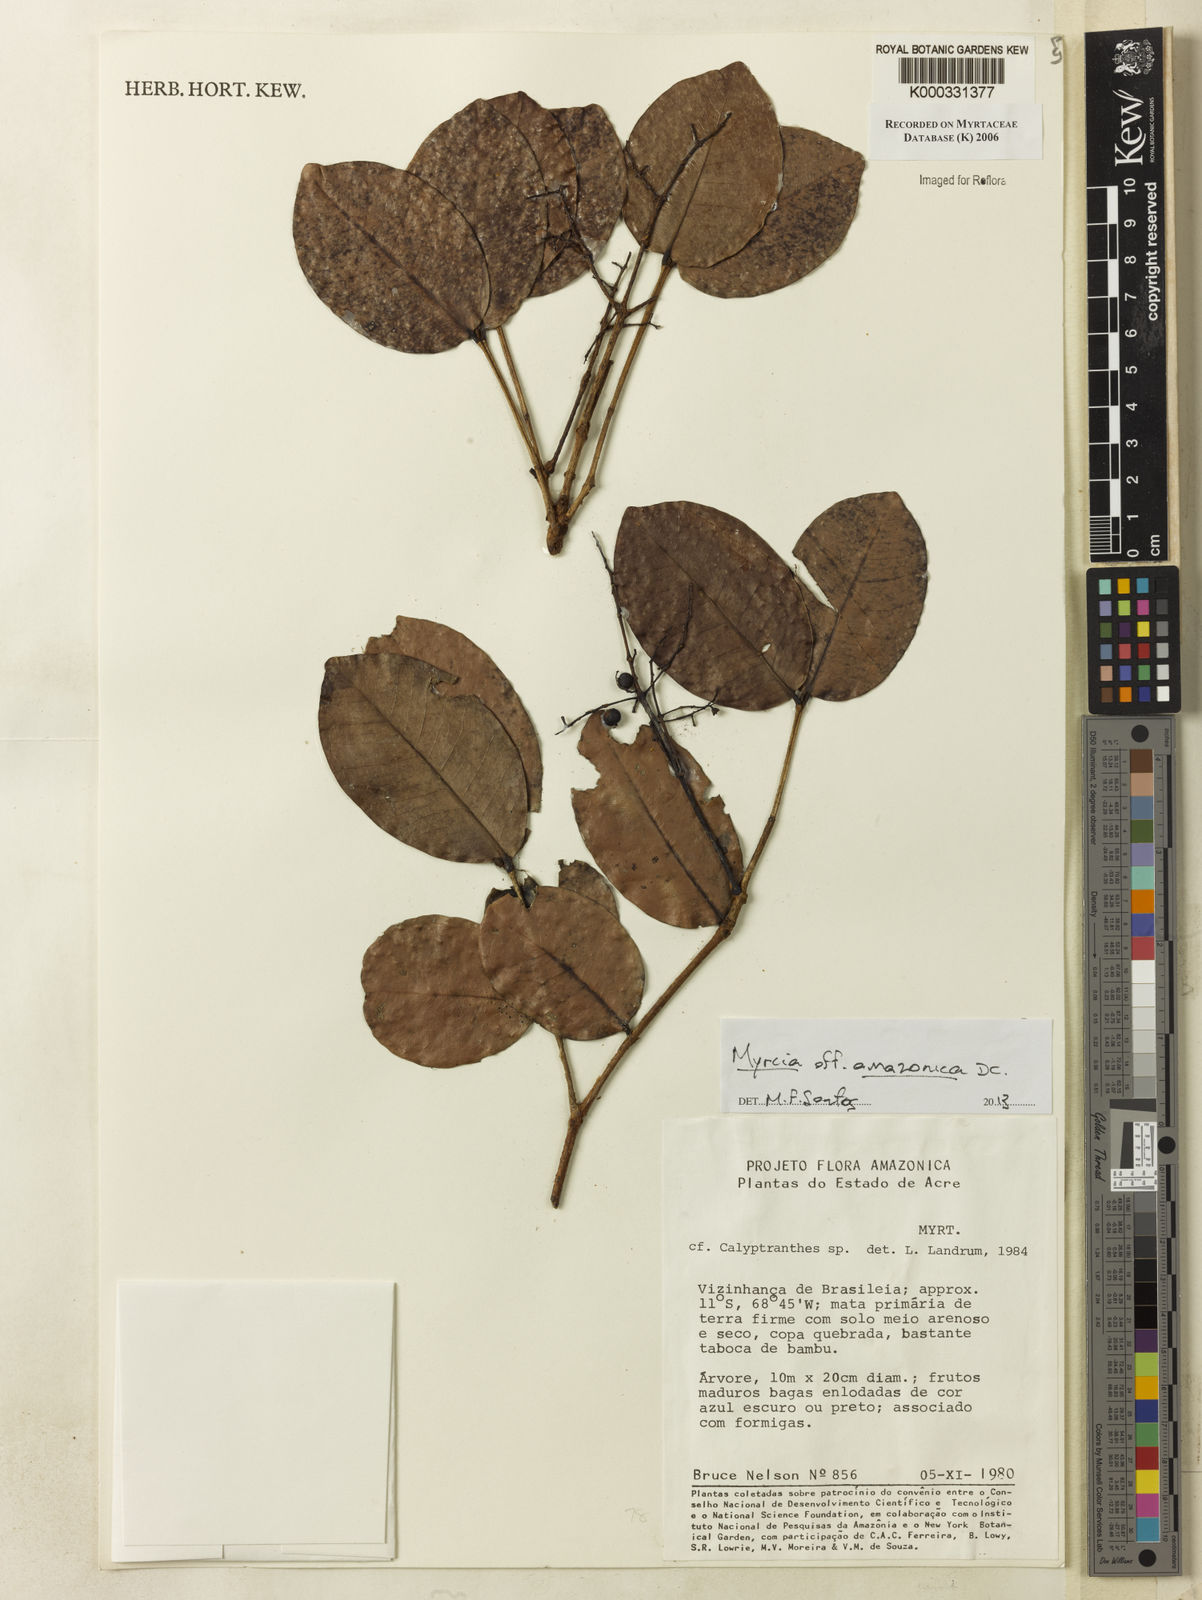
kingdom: Plantae
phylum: Tracheophyta
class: Magnoliopsida
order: Myrtales
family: Myrtaceae
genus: Calyptranthes
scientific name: Calyptranthes
